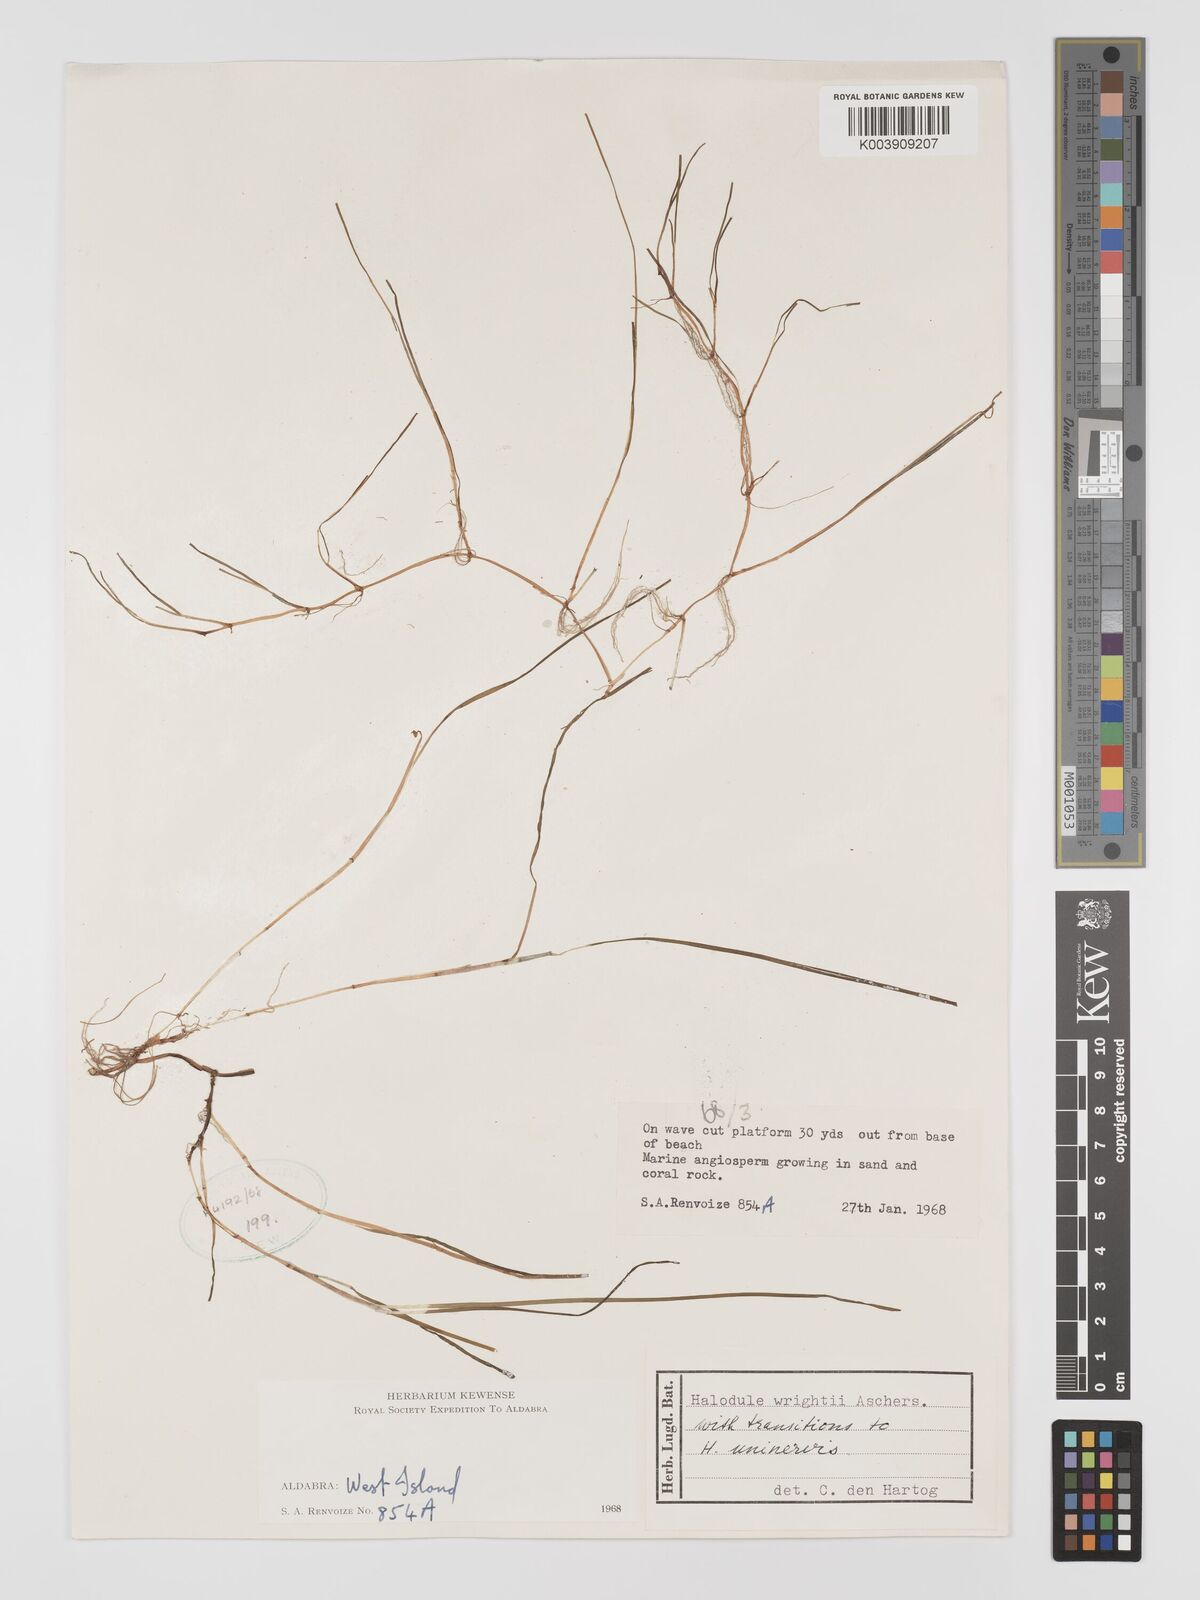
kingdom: Plantae
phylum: Tracheophyta
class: Liliopsida
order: Alismatales
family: Cymodoceaceae
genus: Halodule
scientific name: Halodule wrightii
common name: Shoalgrass
